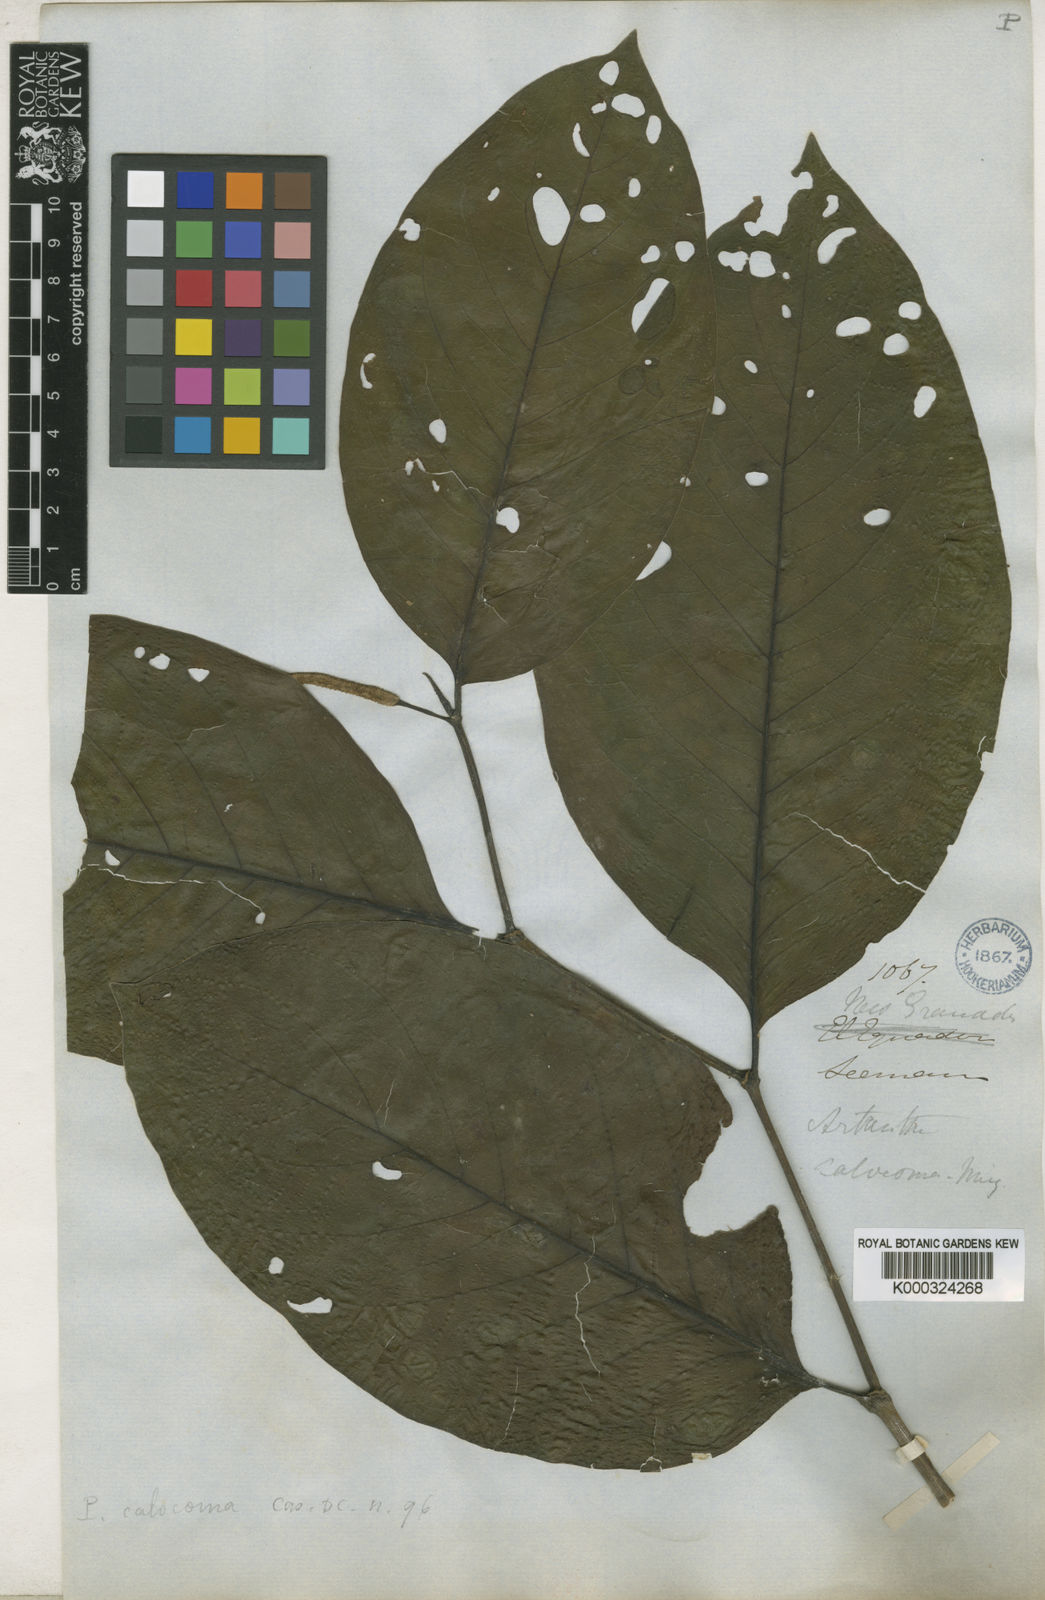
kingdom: Plantae
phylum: Tracheophyta
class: Magnoliopsida
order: Piperales
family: Piperaceae
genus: Piper
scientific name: Piper calocoma
